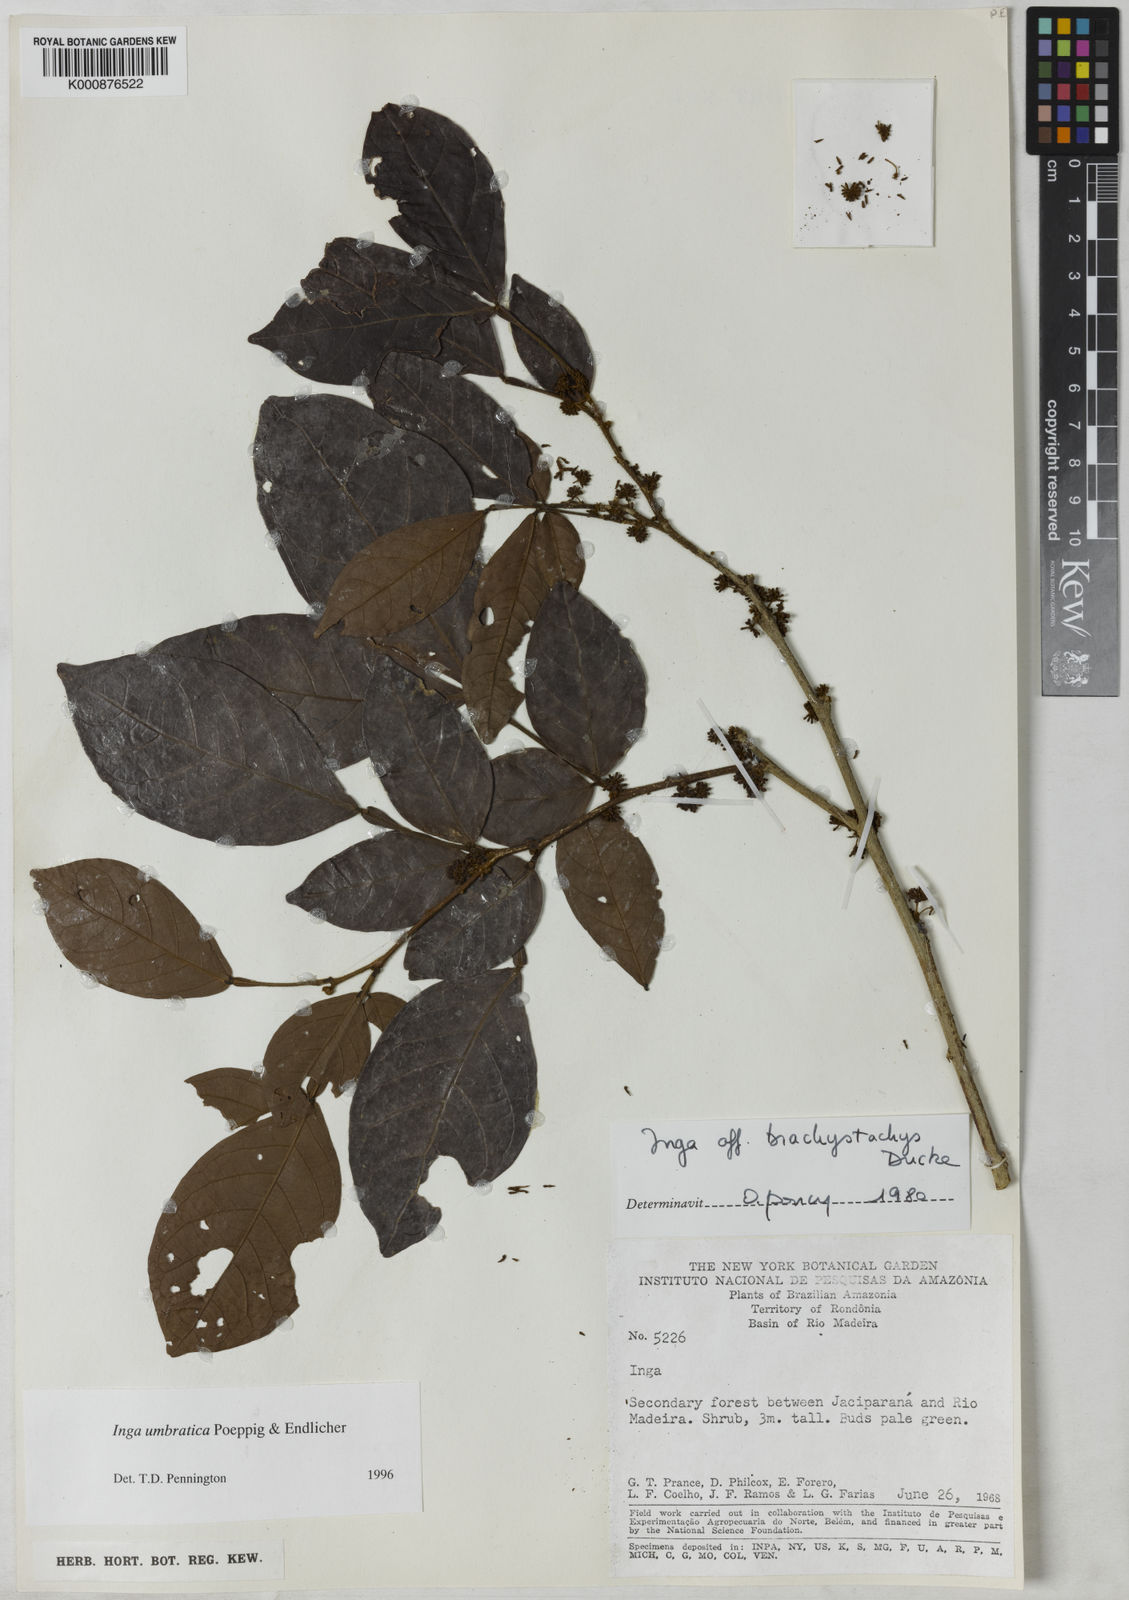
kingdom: Plantae
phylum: Tracheophyta
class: Magnoliopsida
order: Fabales
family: Fabaceae
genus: Inga
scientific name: Inga umbratica
